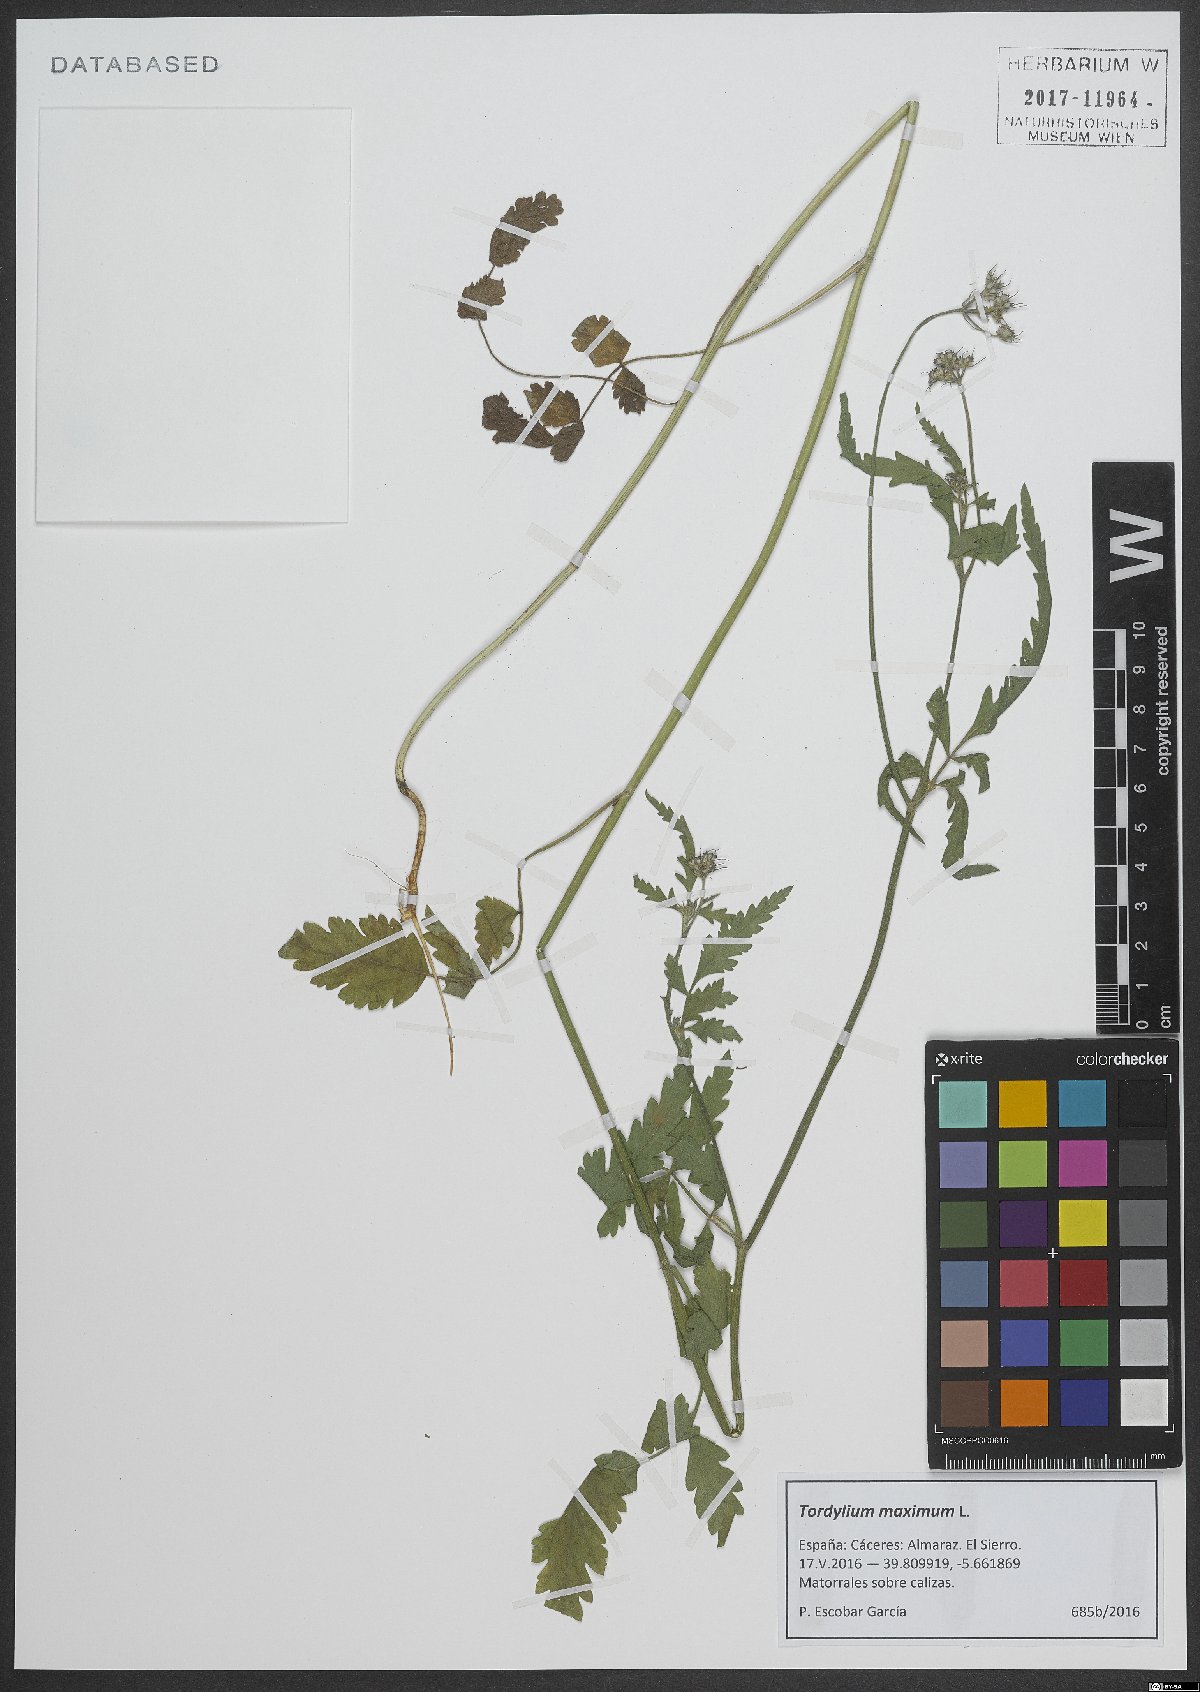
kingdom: Plantae
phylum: Tracheophyta
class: Magnoliopsida
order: Apiales
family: Apiaceae
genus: Tordylium
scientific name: Tordylium maximum
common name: Hartwort
